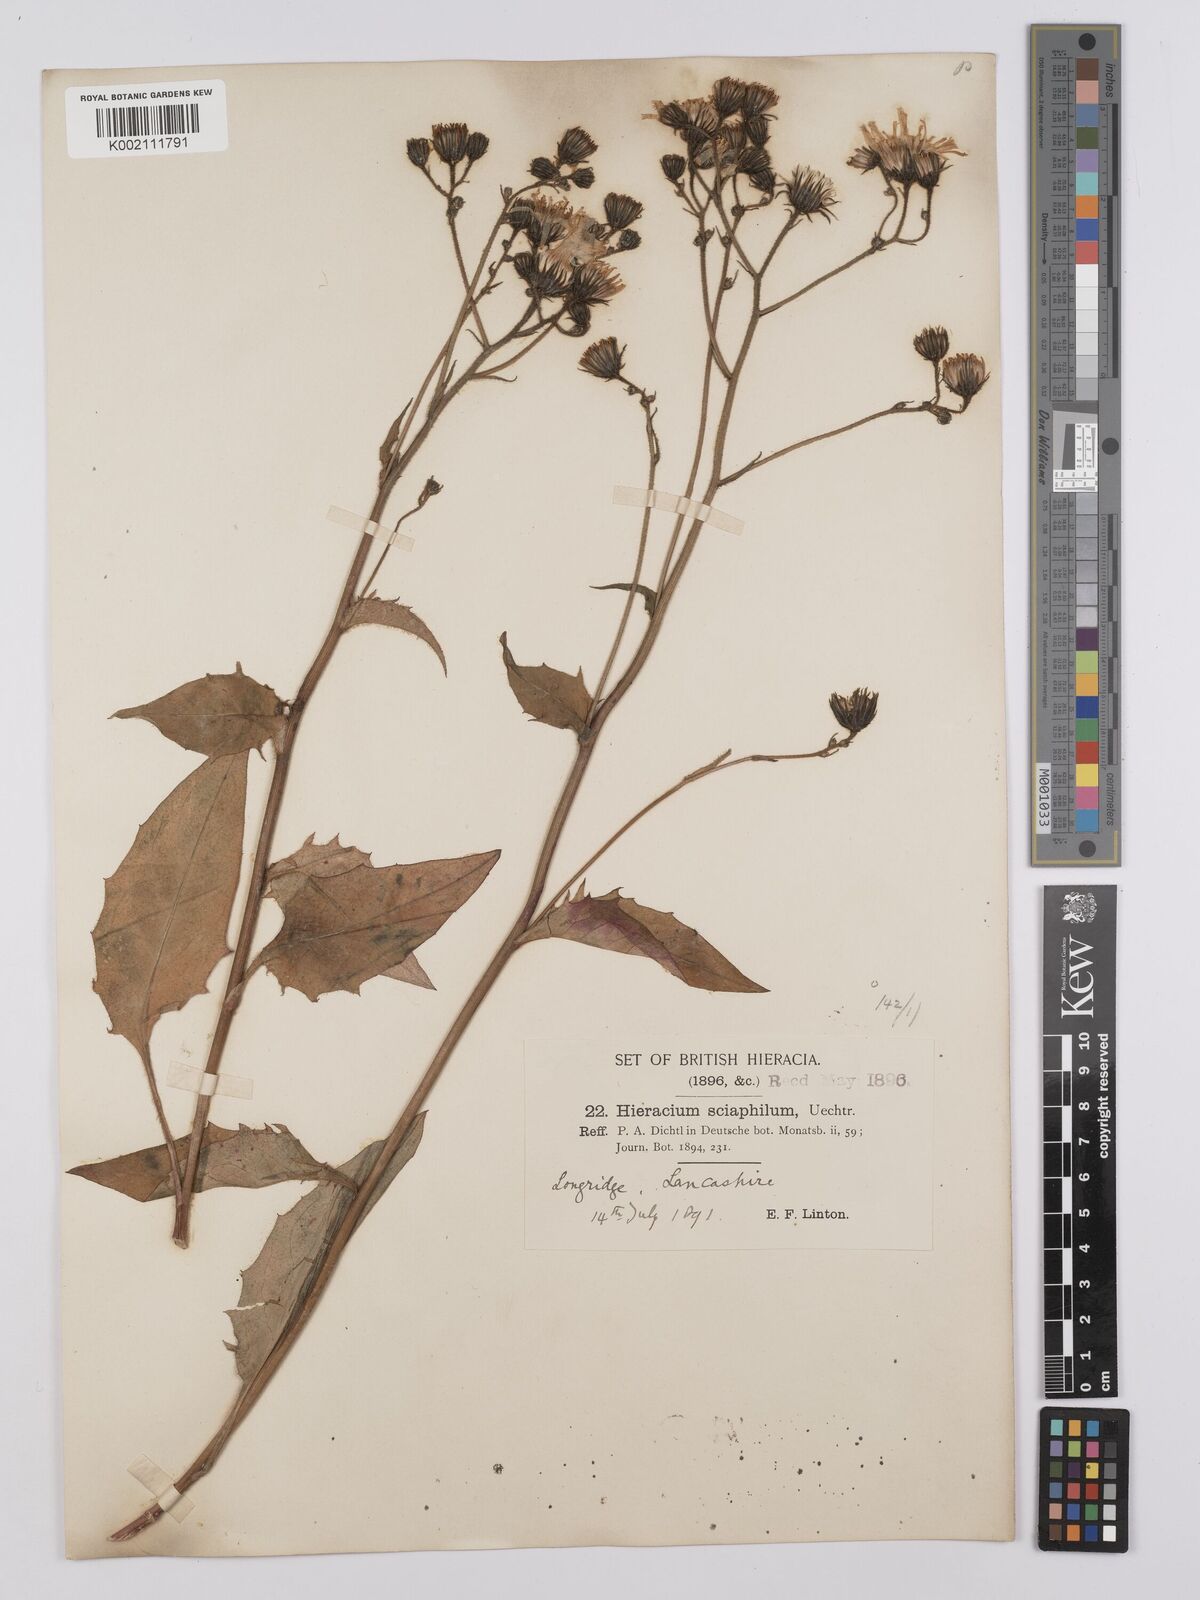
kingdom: Plantae
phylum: Tracheophyta
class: Magnoliopsida
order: Asterales
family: Asteraceae
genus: Hieracium
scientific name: Hieracium lachenalii
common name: Common hawkweed
